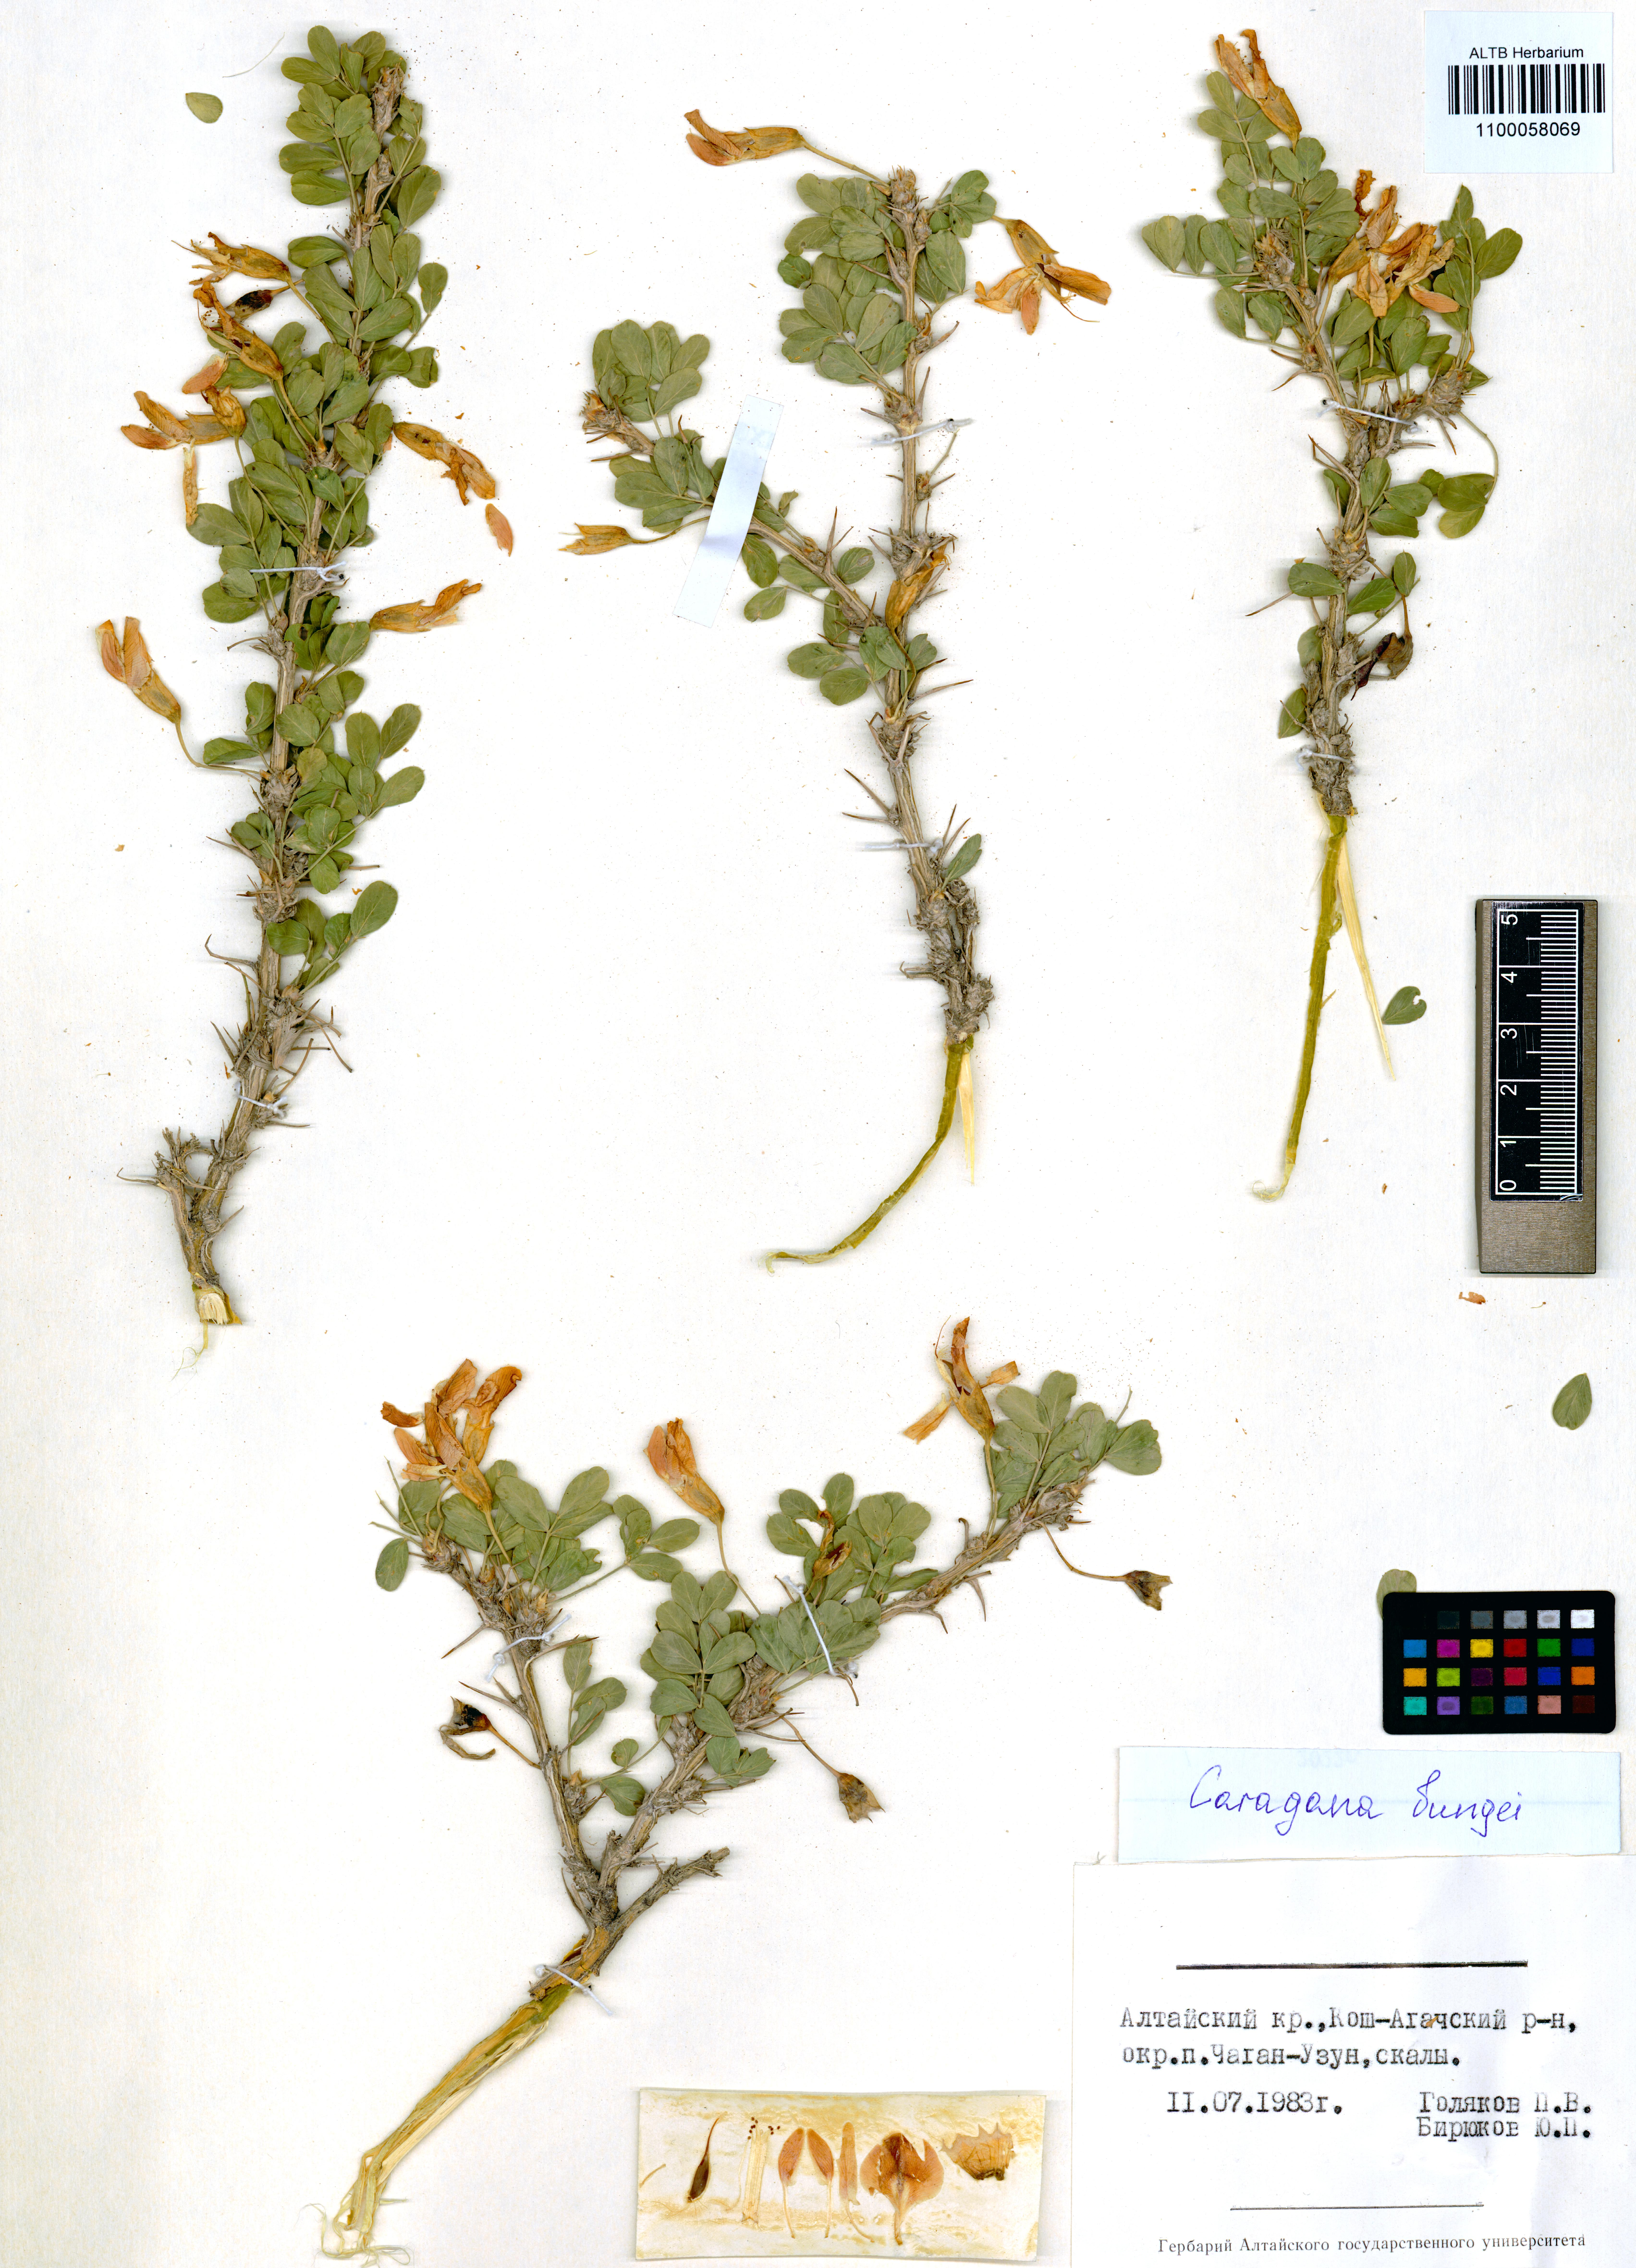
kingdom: Plantae
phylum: Tracheophyta
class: Magnoliopsida
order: Fabales
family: Fabaceae
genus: Caragana
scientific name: Caragana bungei
